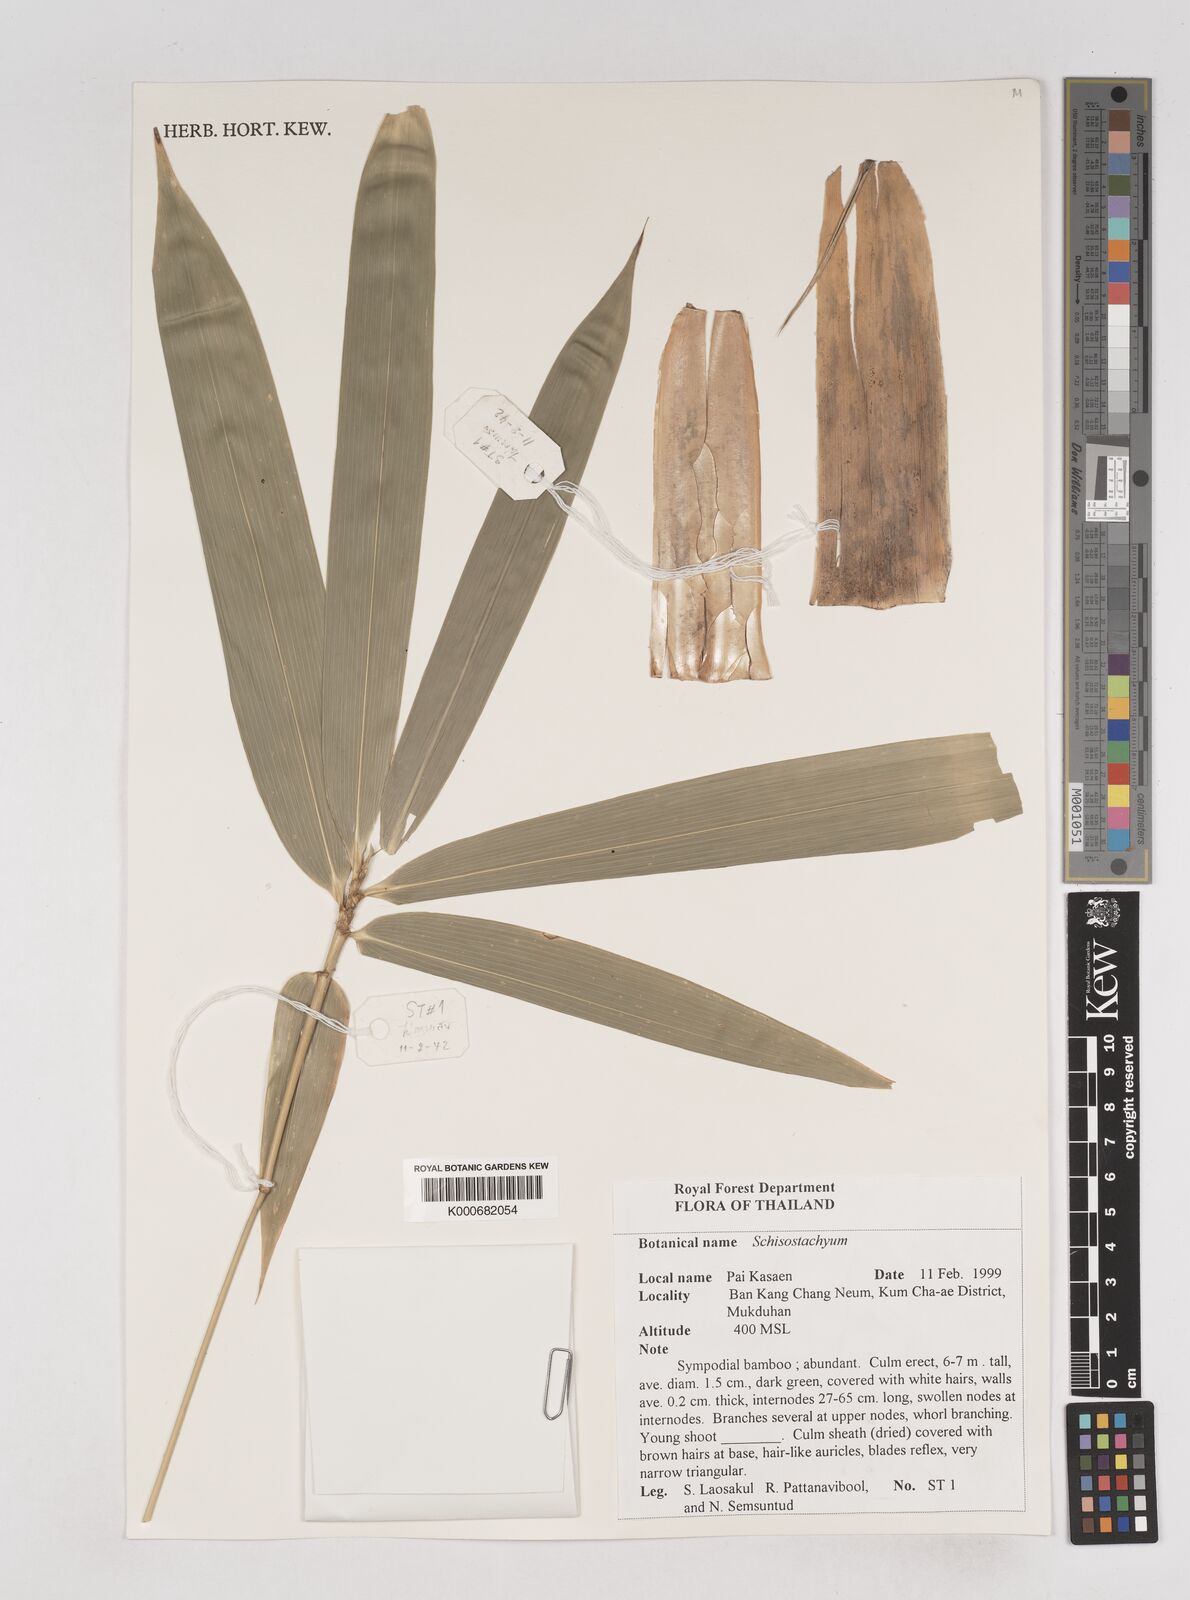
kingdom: Plantae
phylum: Tracheophyta
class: Liliopsida
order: Poales
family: Poaceae
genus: Schizostachyum
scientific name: Schizostachyum aciculare
